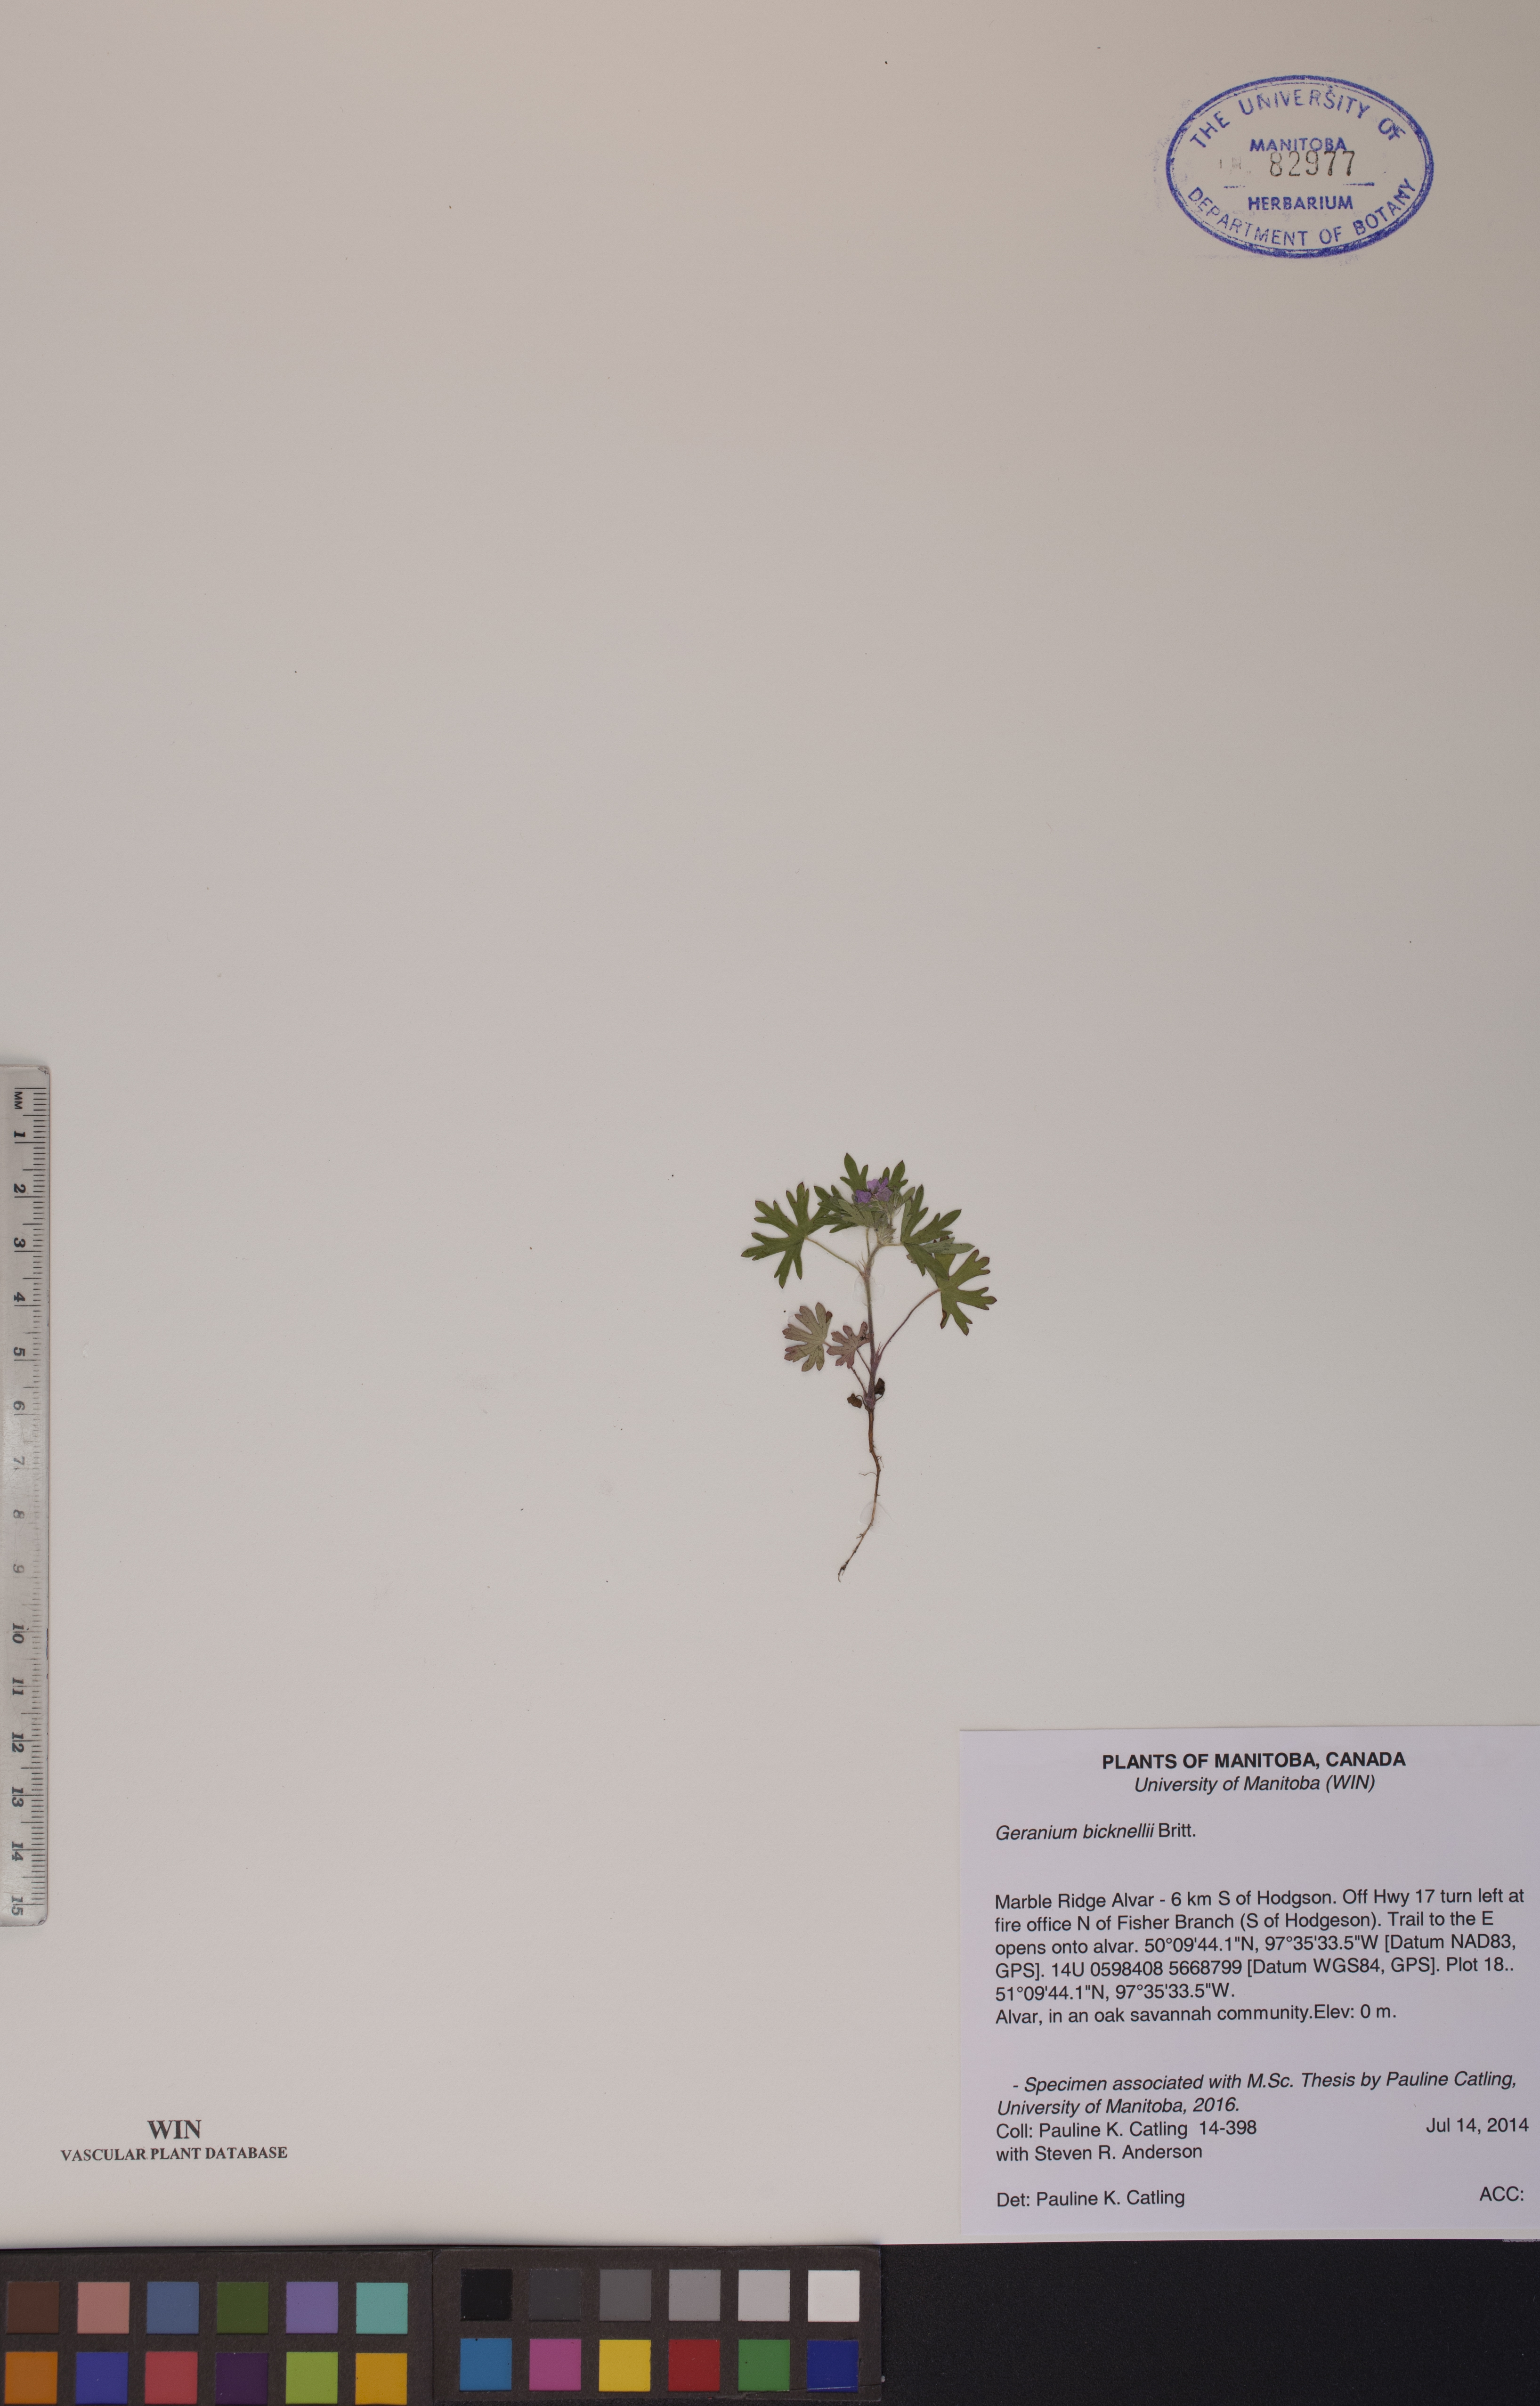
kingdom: Plantae
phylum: Tracheophyta
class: Magnoliopsida
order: Geraniales
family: Geraniaceae
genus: Geranium
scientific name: Geranium bicknellii
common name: Bicknell's cranesbill
